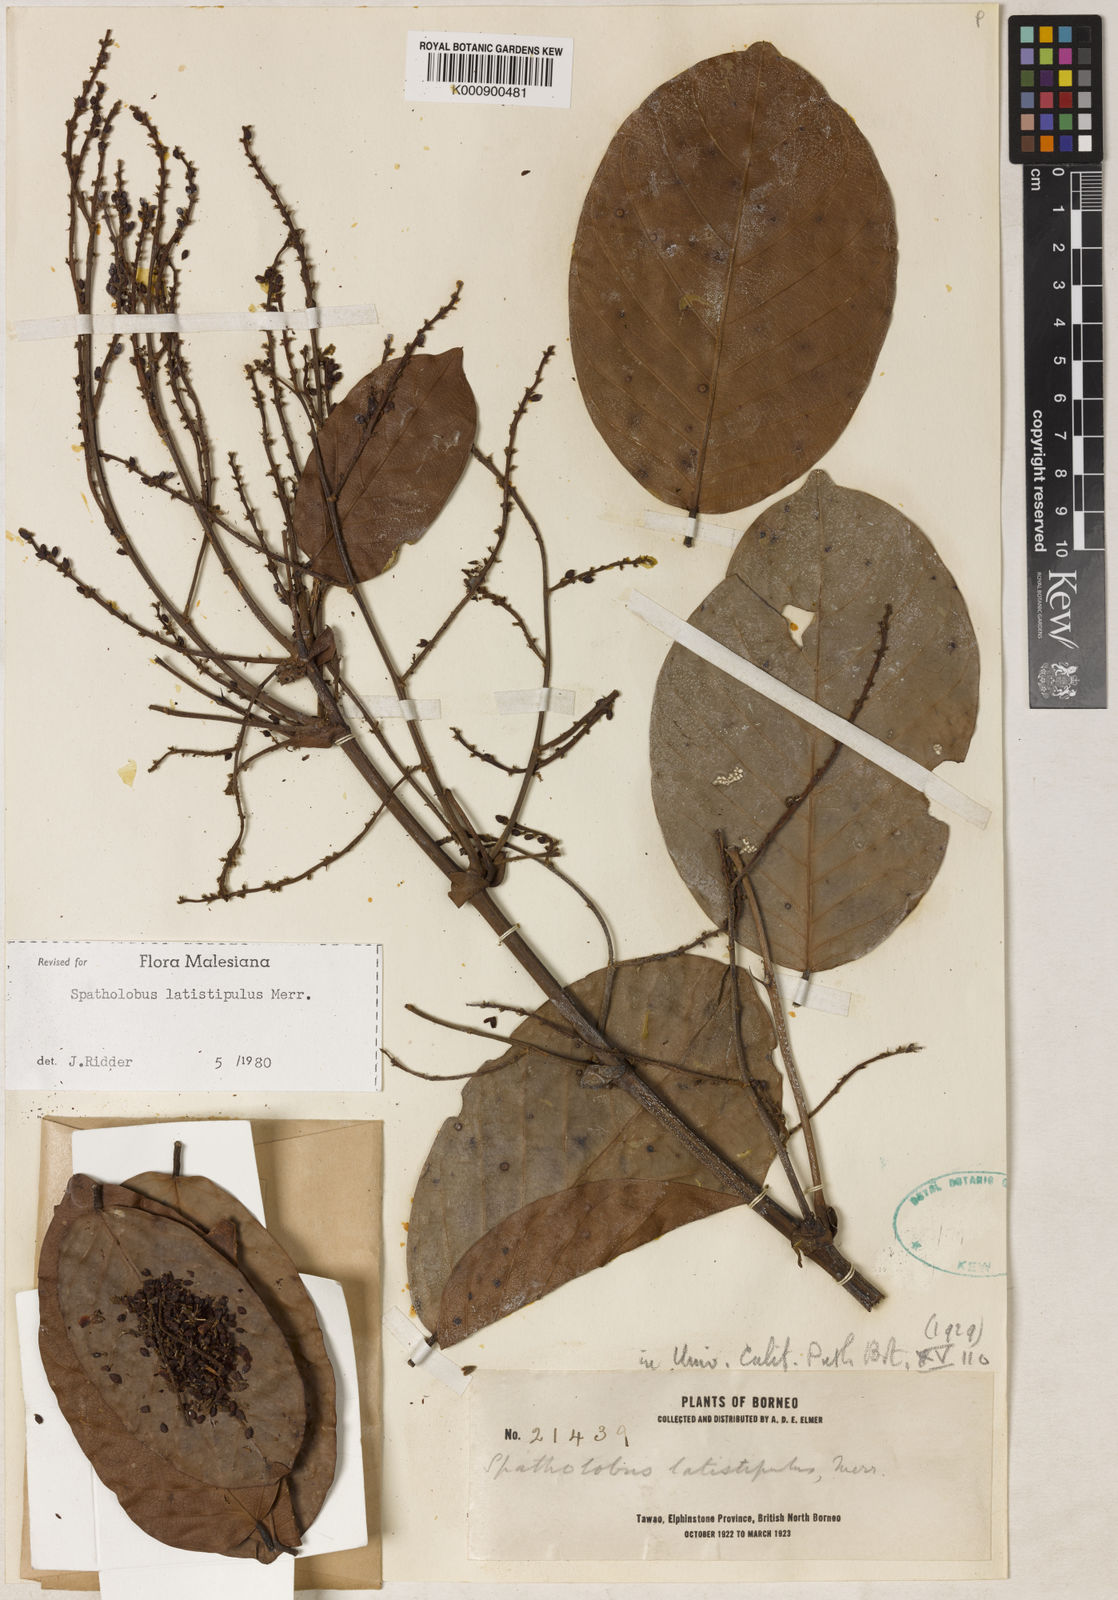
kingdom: Plantae
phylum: Tracheophyta
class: Magnoliopsida
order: Fabales
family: Fabaceae
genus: Spatholobus
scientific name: Spatholobus latistipulus
